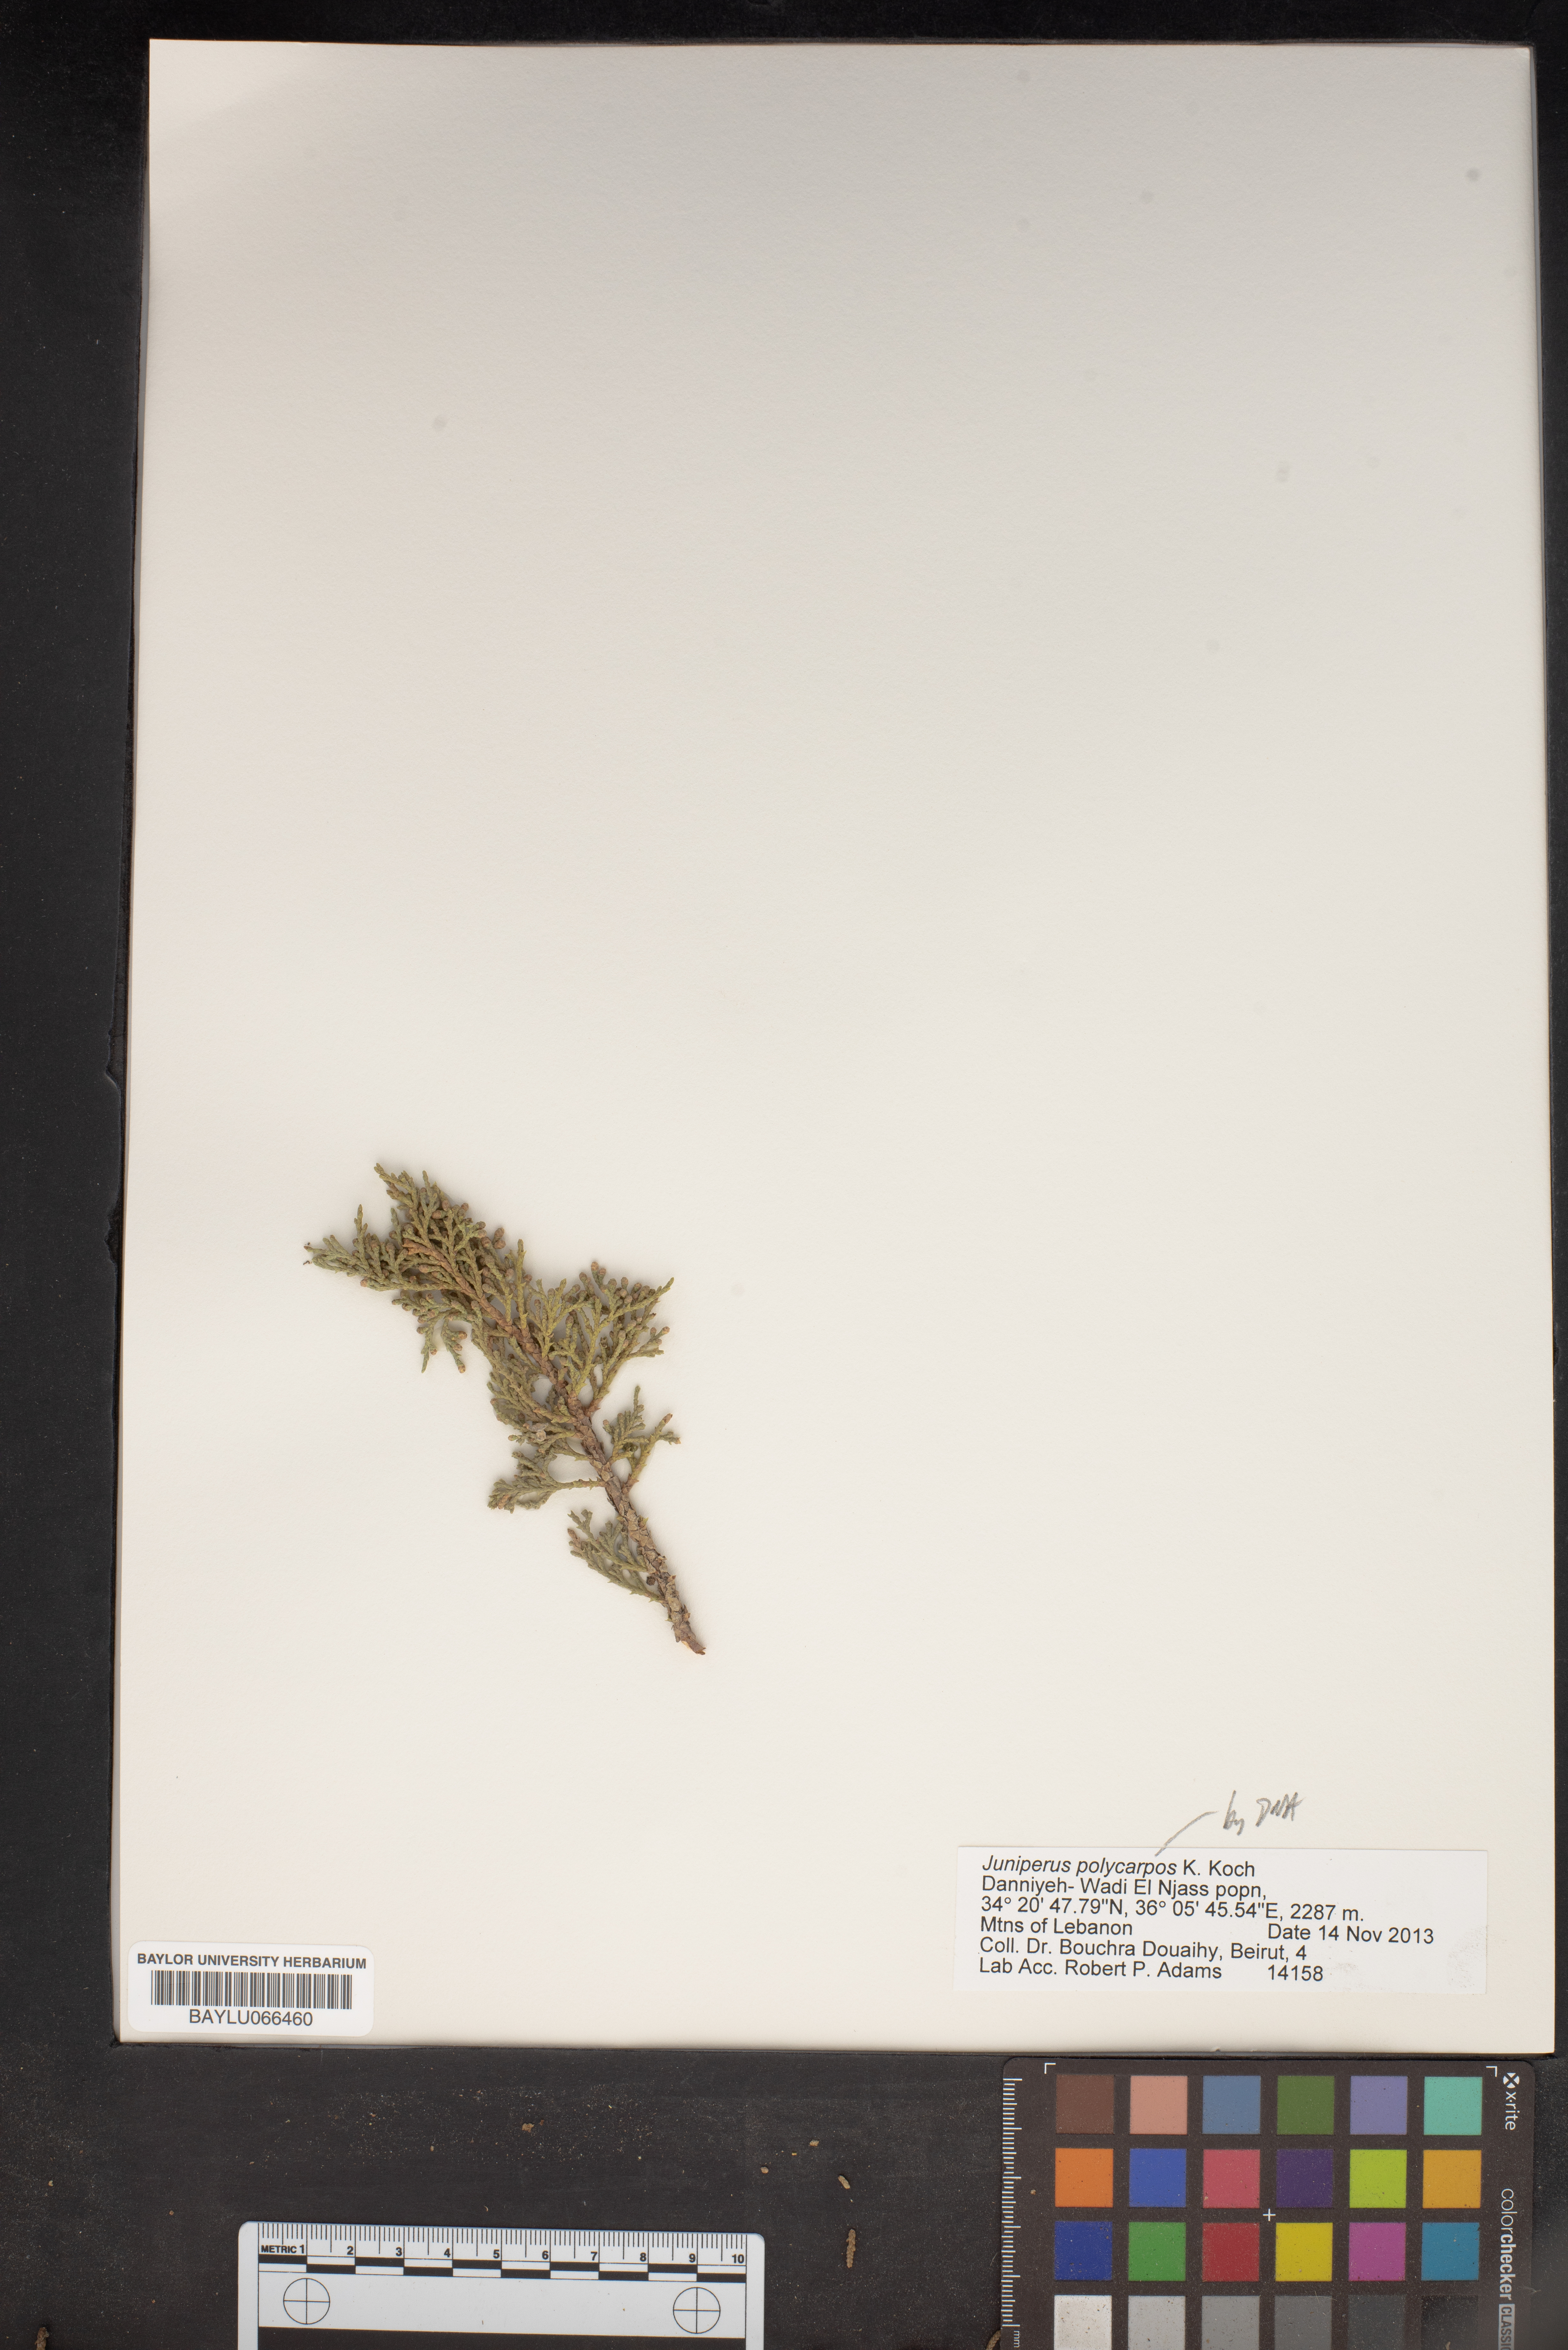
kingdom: Plantae
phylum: Tracheophyta
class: Pinopsida
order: Pinales
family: Cupressaceae
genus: Juniperus
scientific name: Juniperus excelsa
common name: Crimean juniper
